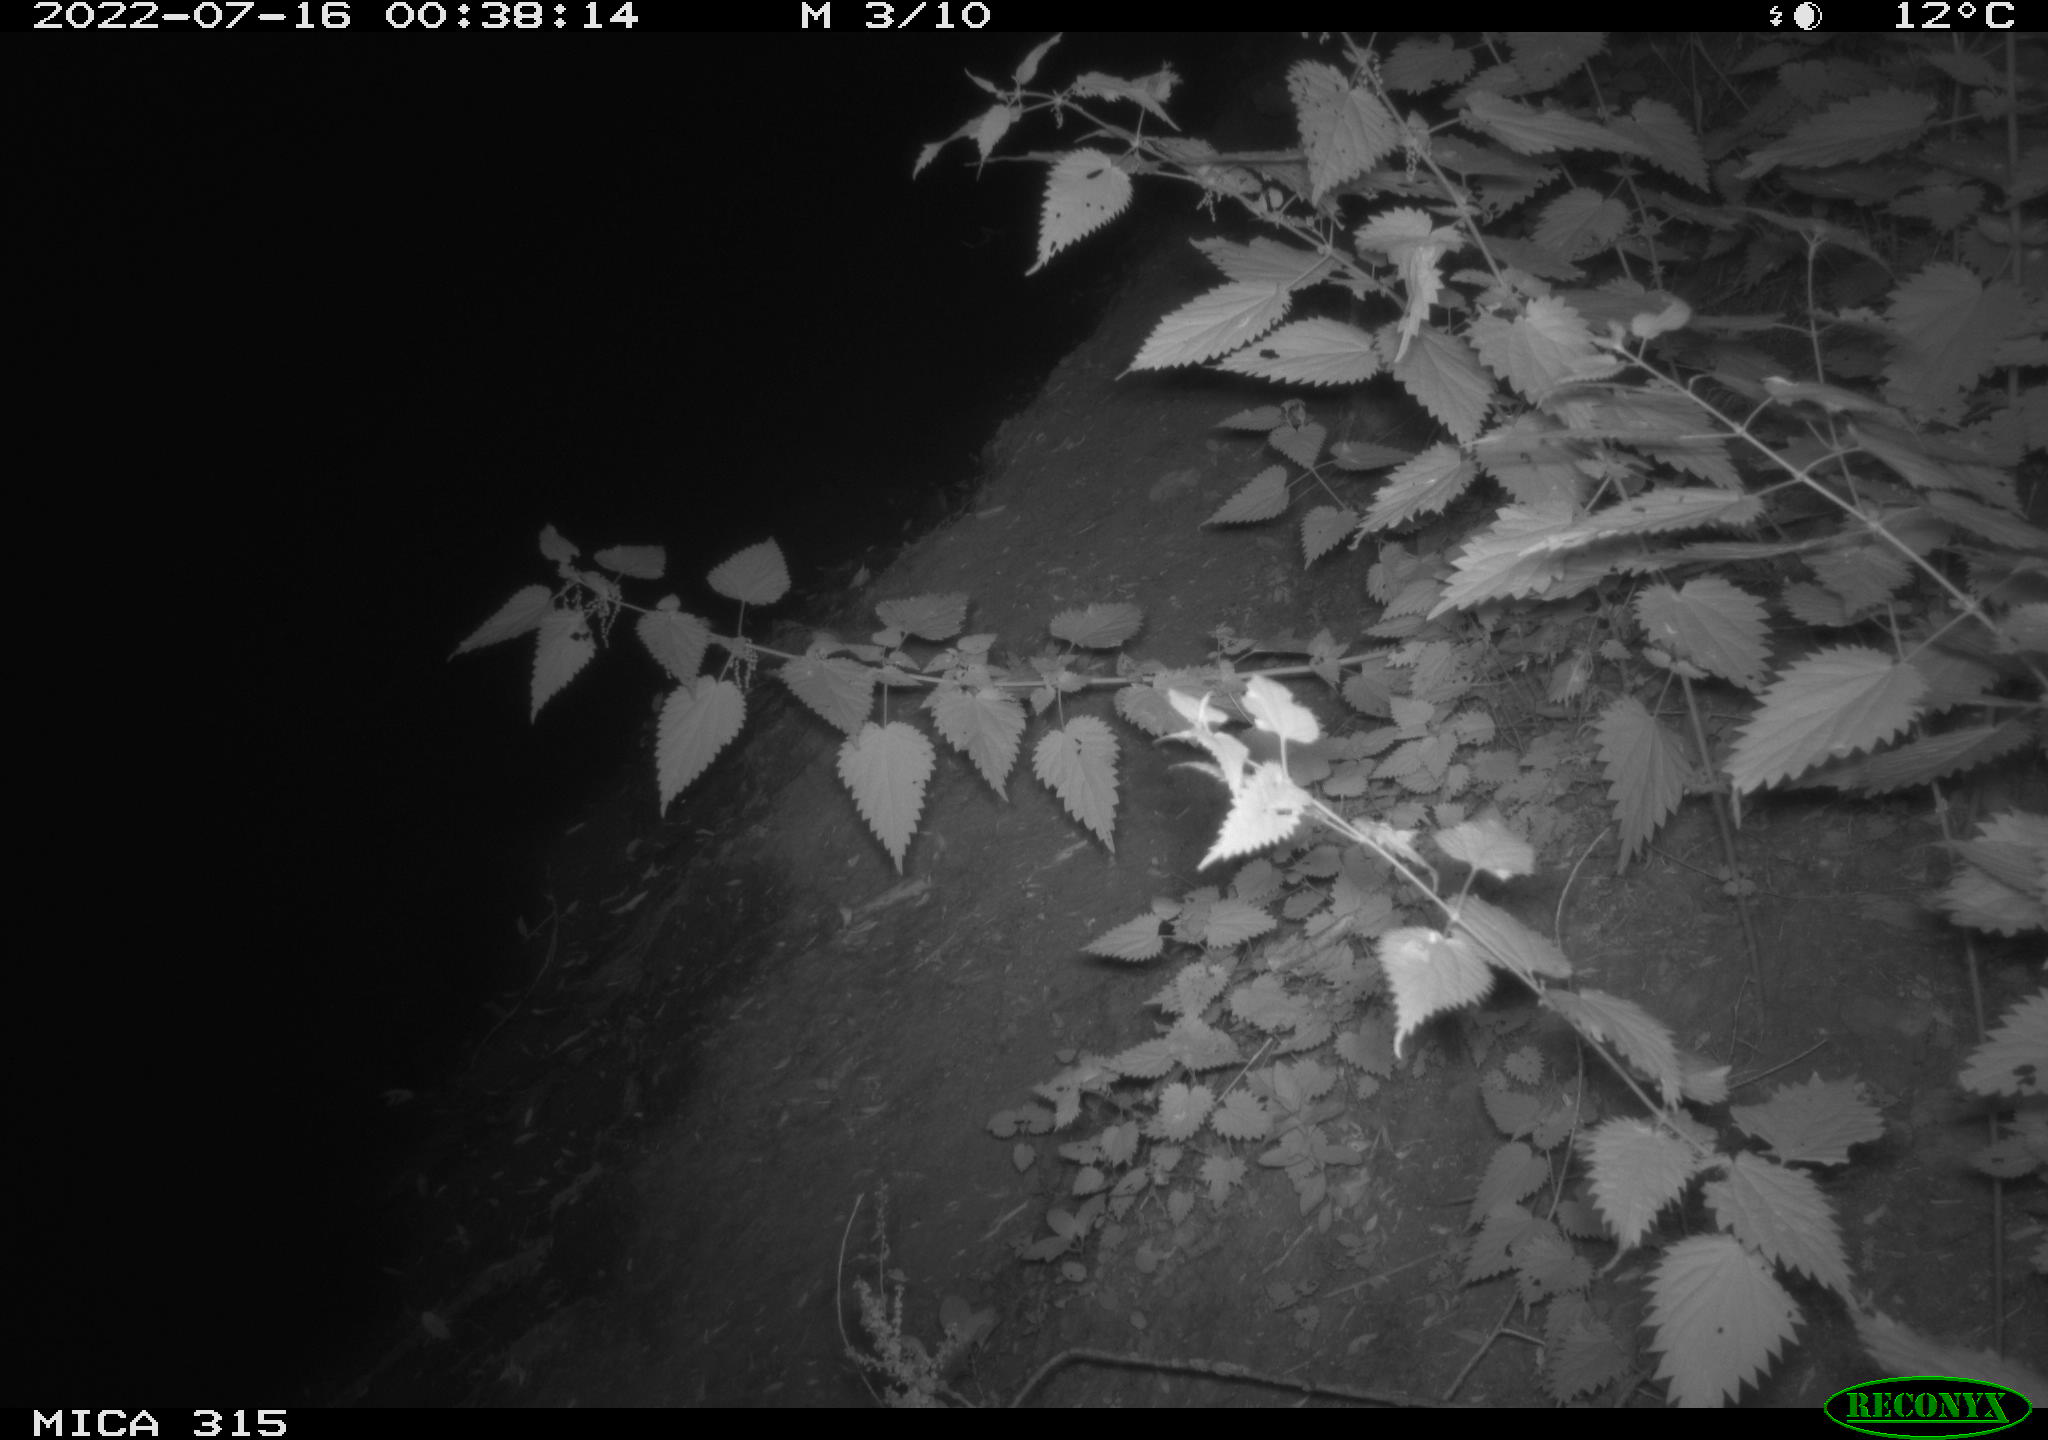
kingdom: Animalia
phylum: Chordata
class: Mammalia
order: Carnivora
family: Canidae
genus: Vulpes
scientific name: Vulpes vulpes
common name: Red fox
